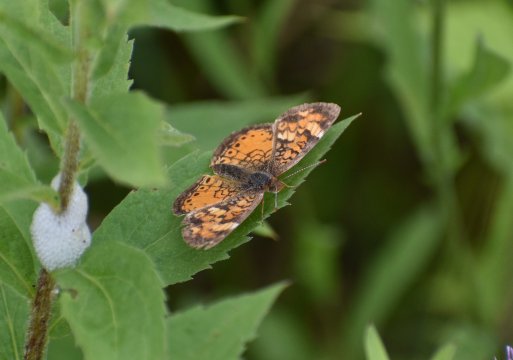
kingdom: Animalia
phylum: Arthropoda
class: Insecta
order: Lepidoptera
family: Nymphalidae
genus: Phyciodes
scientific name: Phyciodes tharos
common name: Northern Crescent
